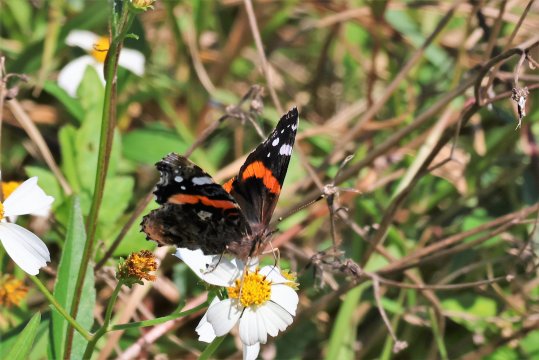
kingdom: Animalia
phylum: Arthropoda
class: Insecta
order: Lepidoptera
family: Nymphalidae
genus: Vanessa
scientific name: Vanessa atalanta
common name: Red Admiral
